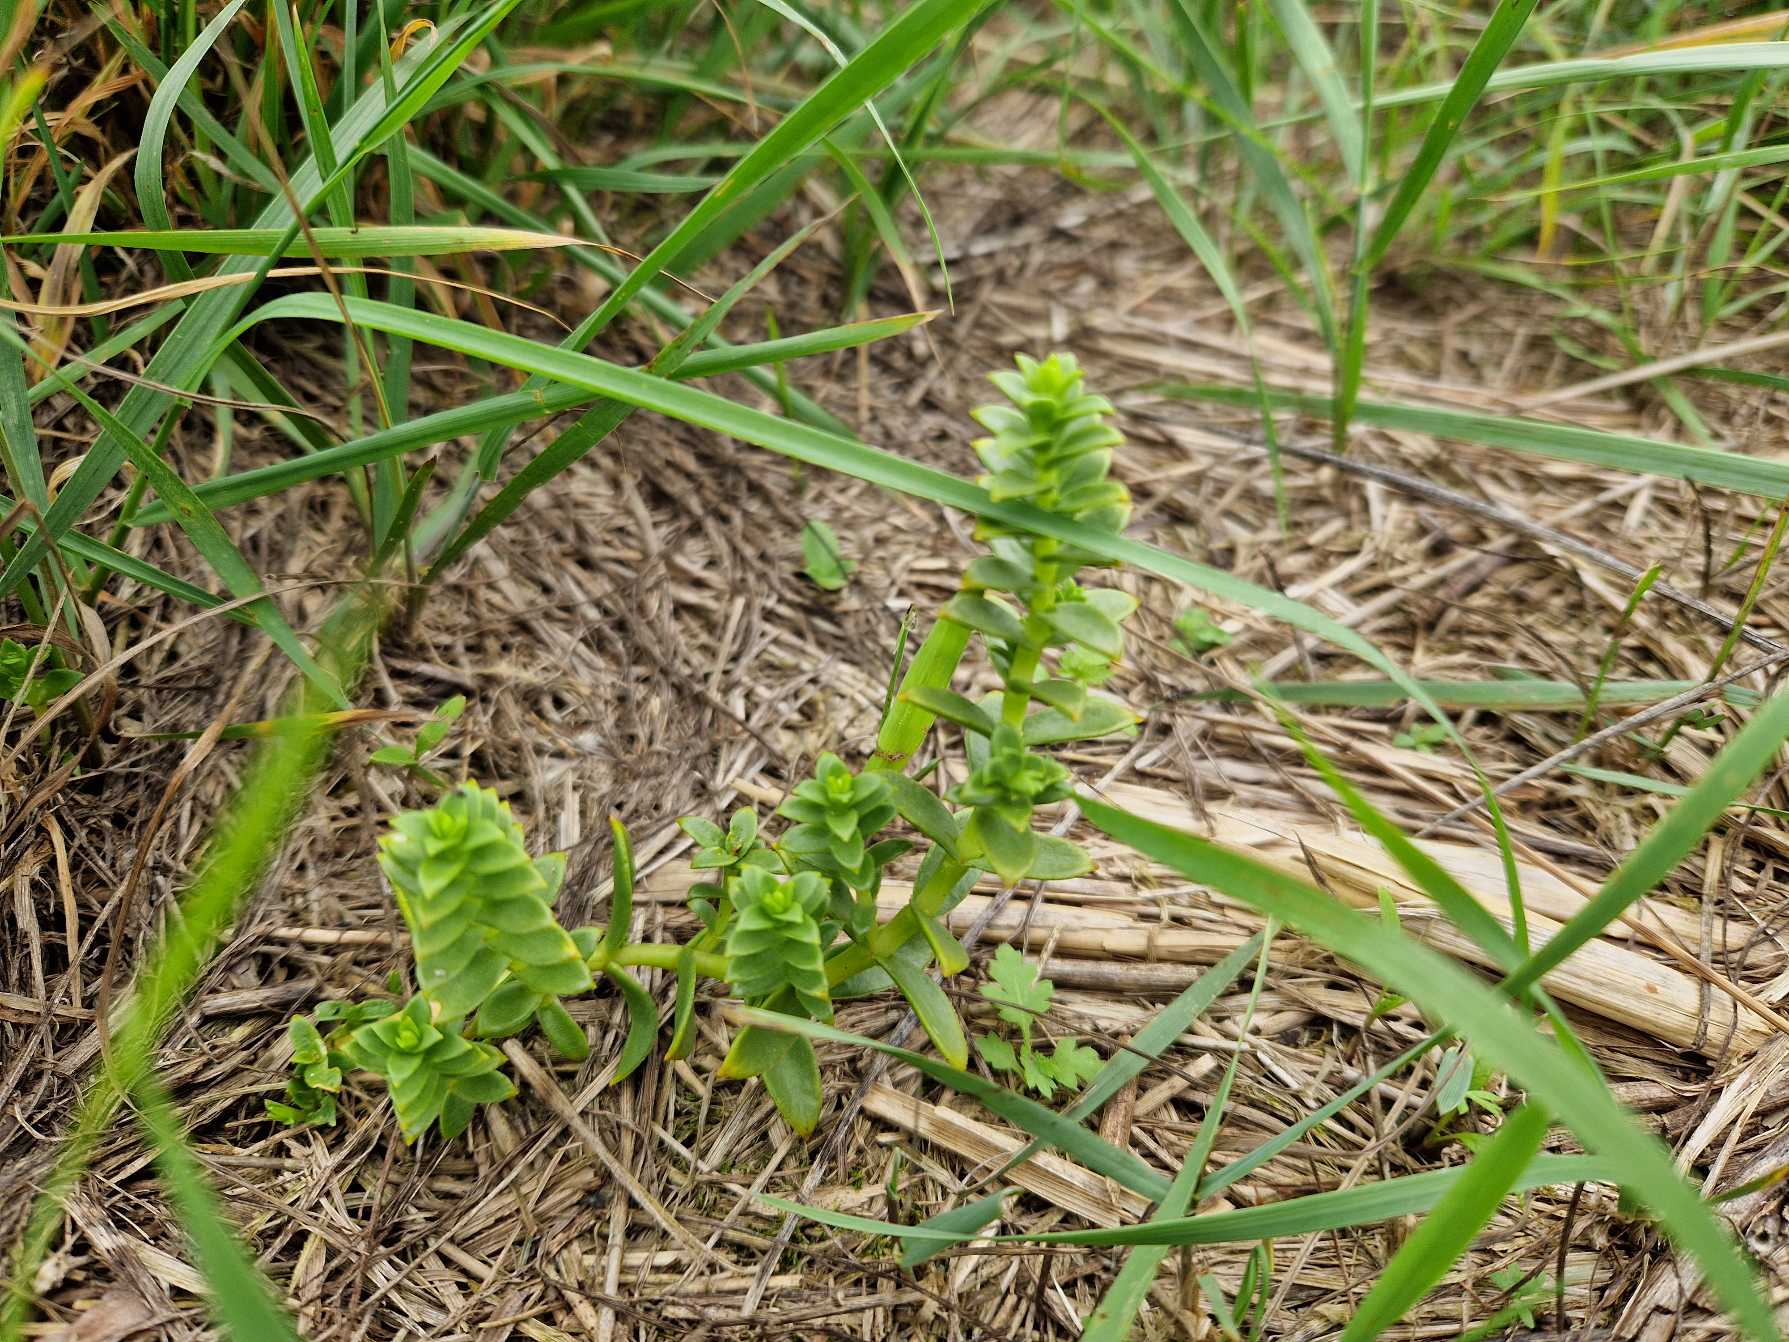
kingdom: Plantae
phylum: Tracheophyta
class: Magnoliopsida
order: Caryophyllales
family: Caryophyllaceae
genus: Honckenya
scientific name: Honckenya peploides
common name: Strandarve
